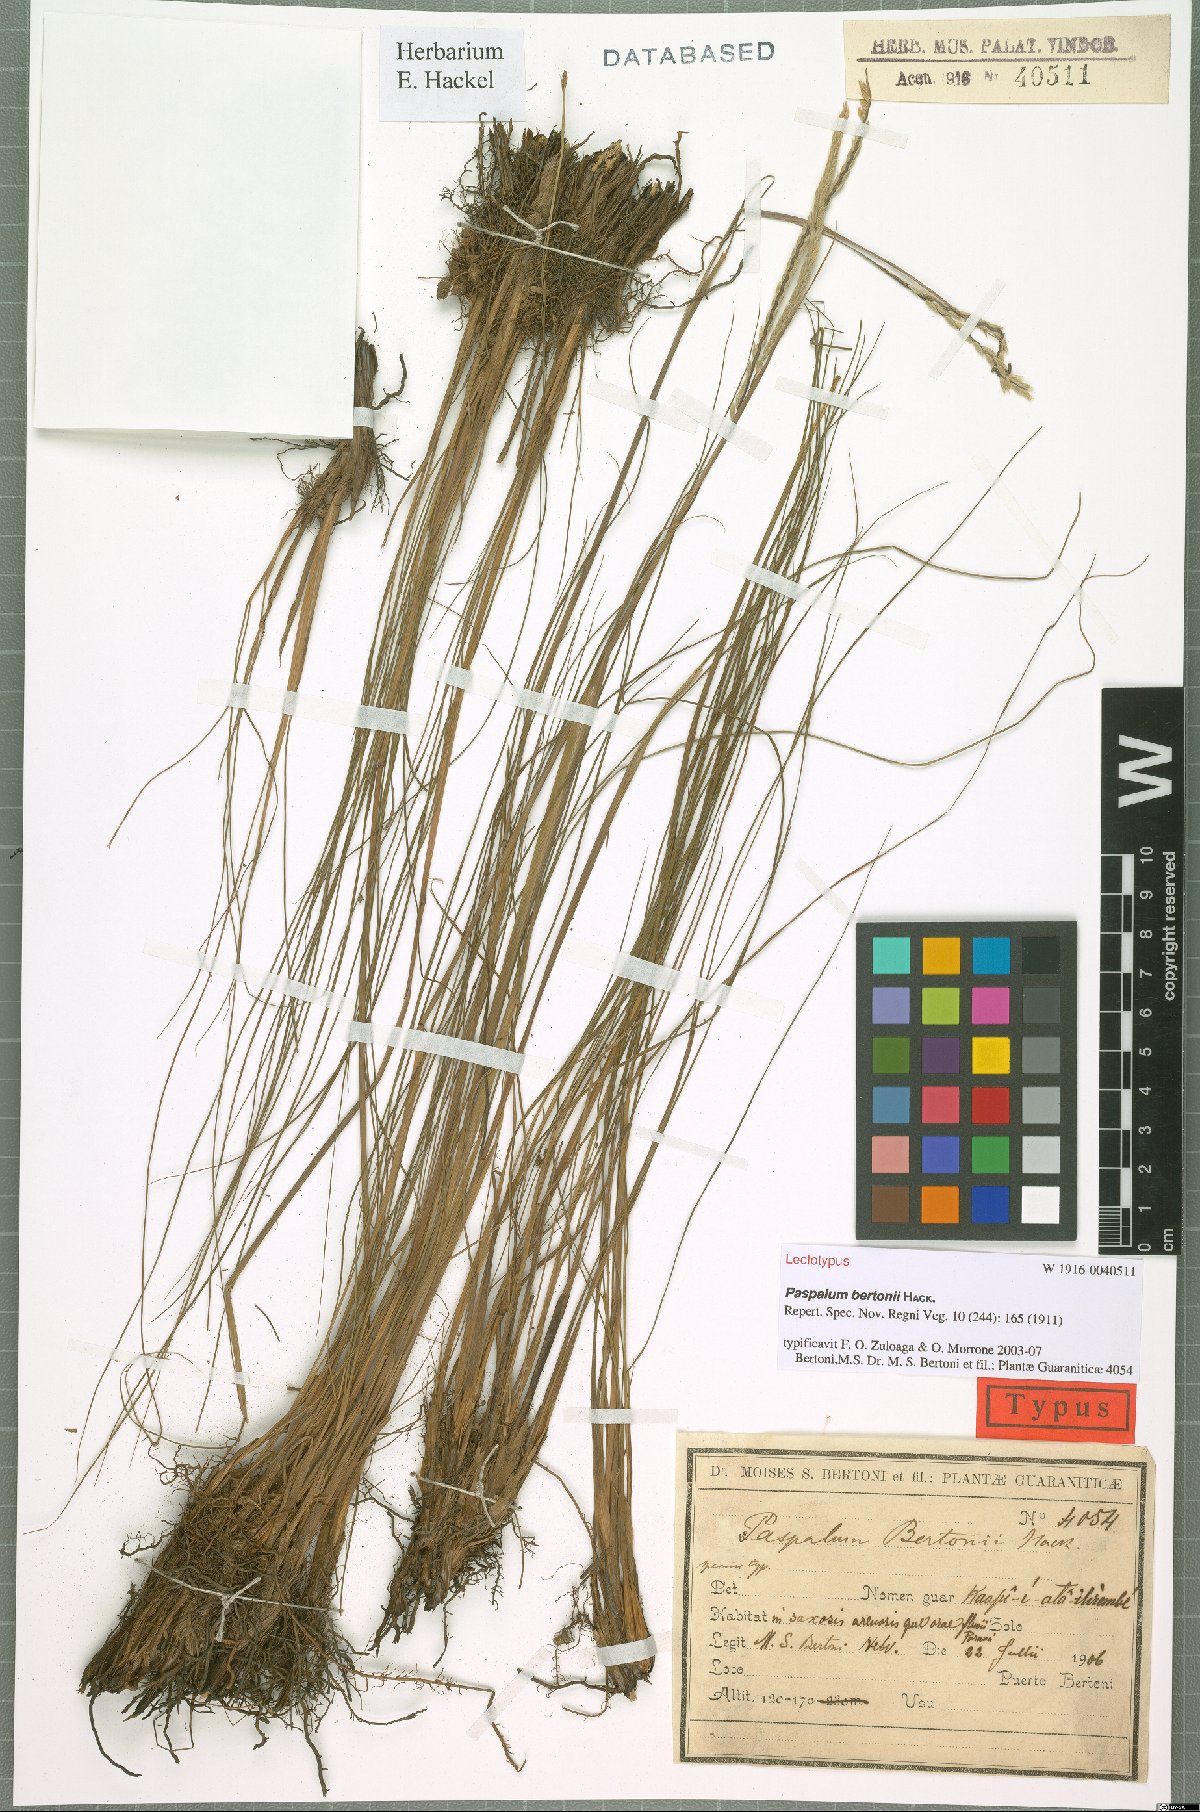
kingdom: Plantae
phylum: Tracheophyta
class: Liliopsida
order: Poales
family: Poaceae
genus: Paspalum
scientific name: Paspalum bertonii
